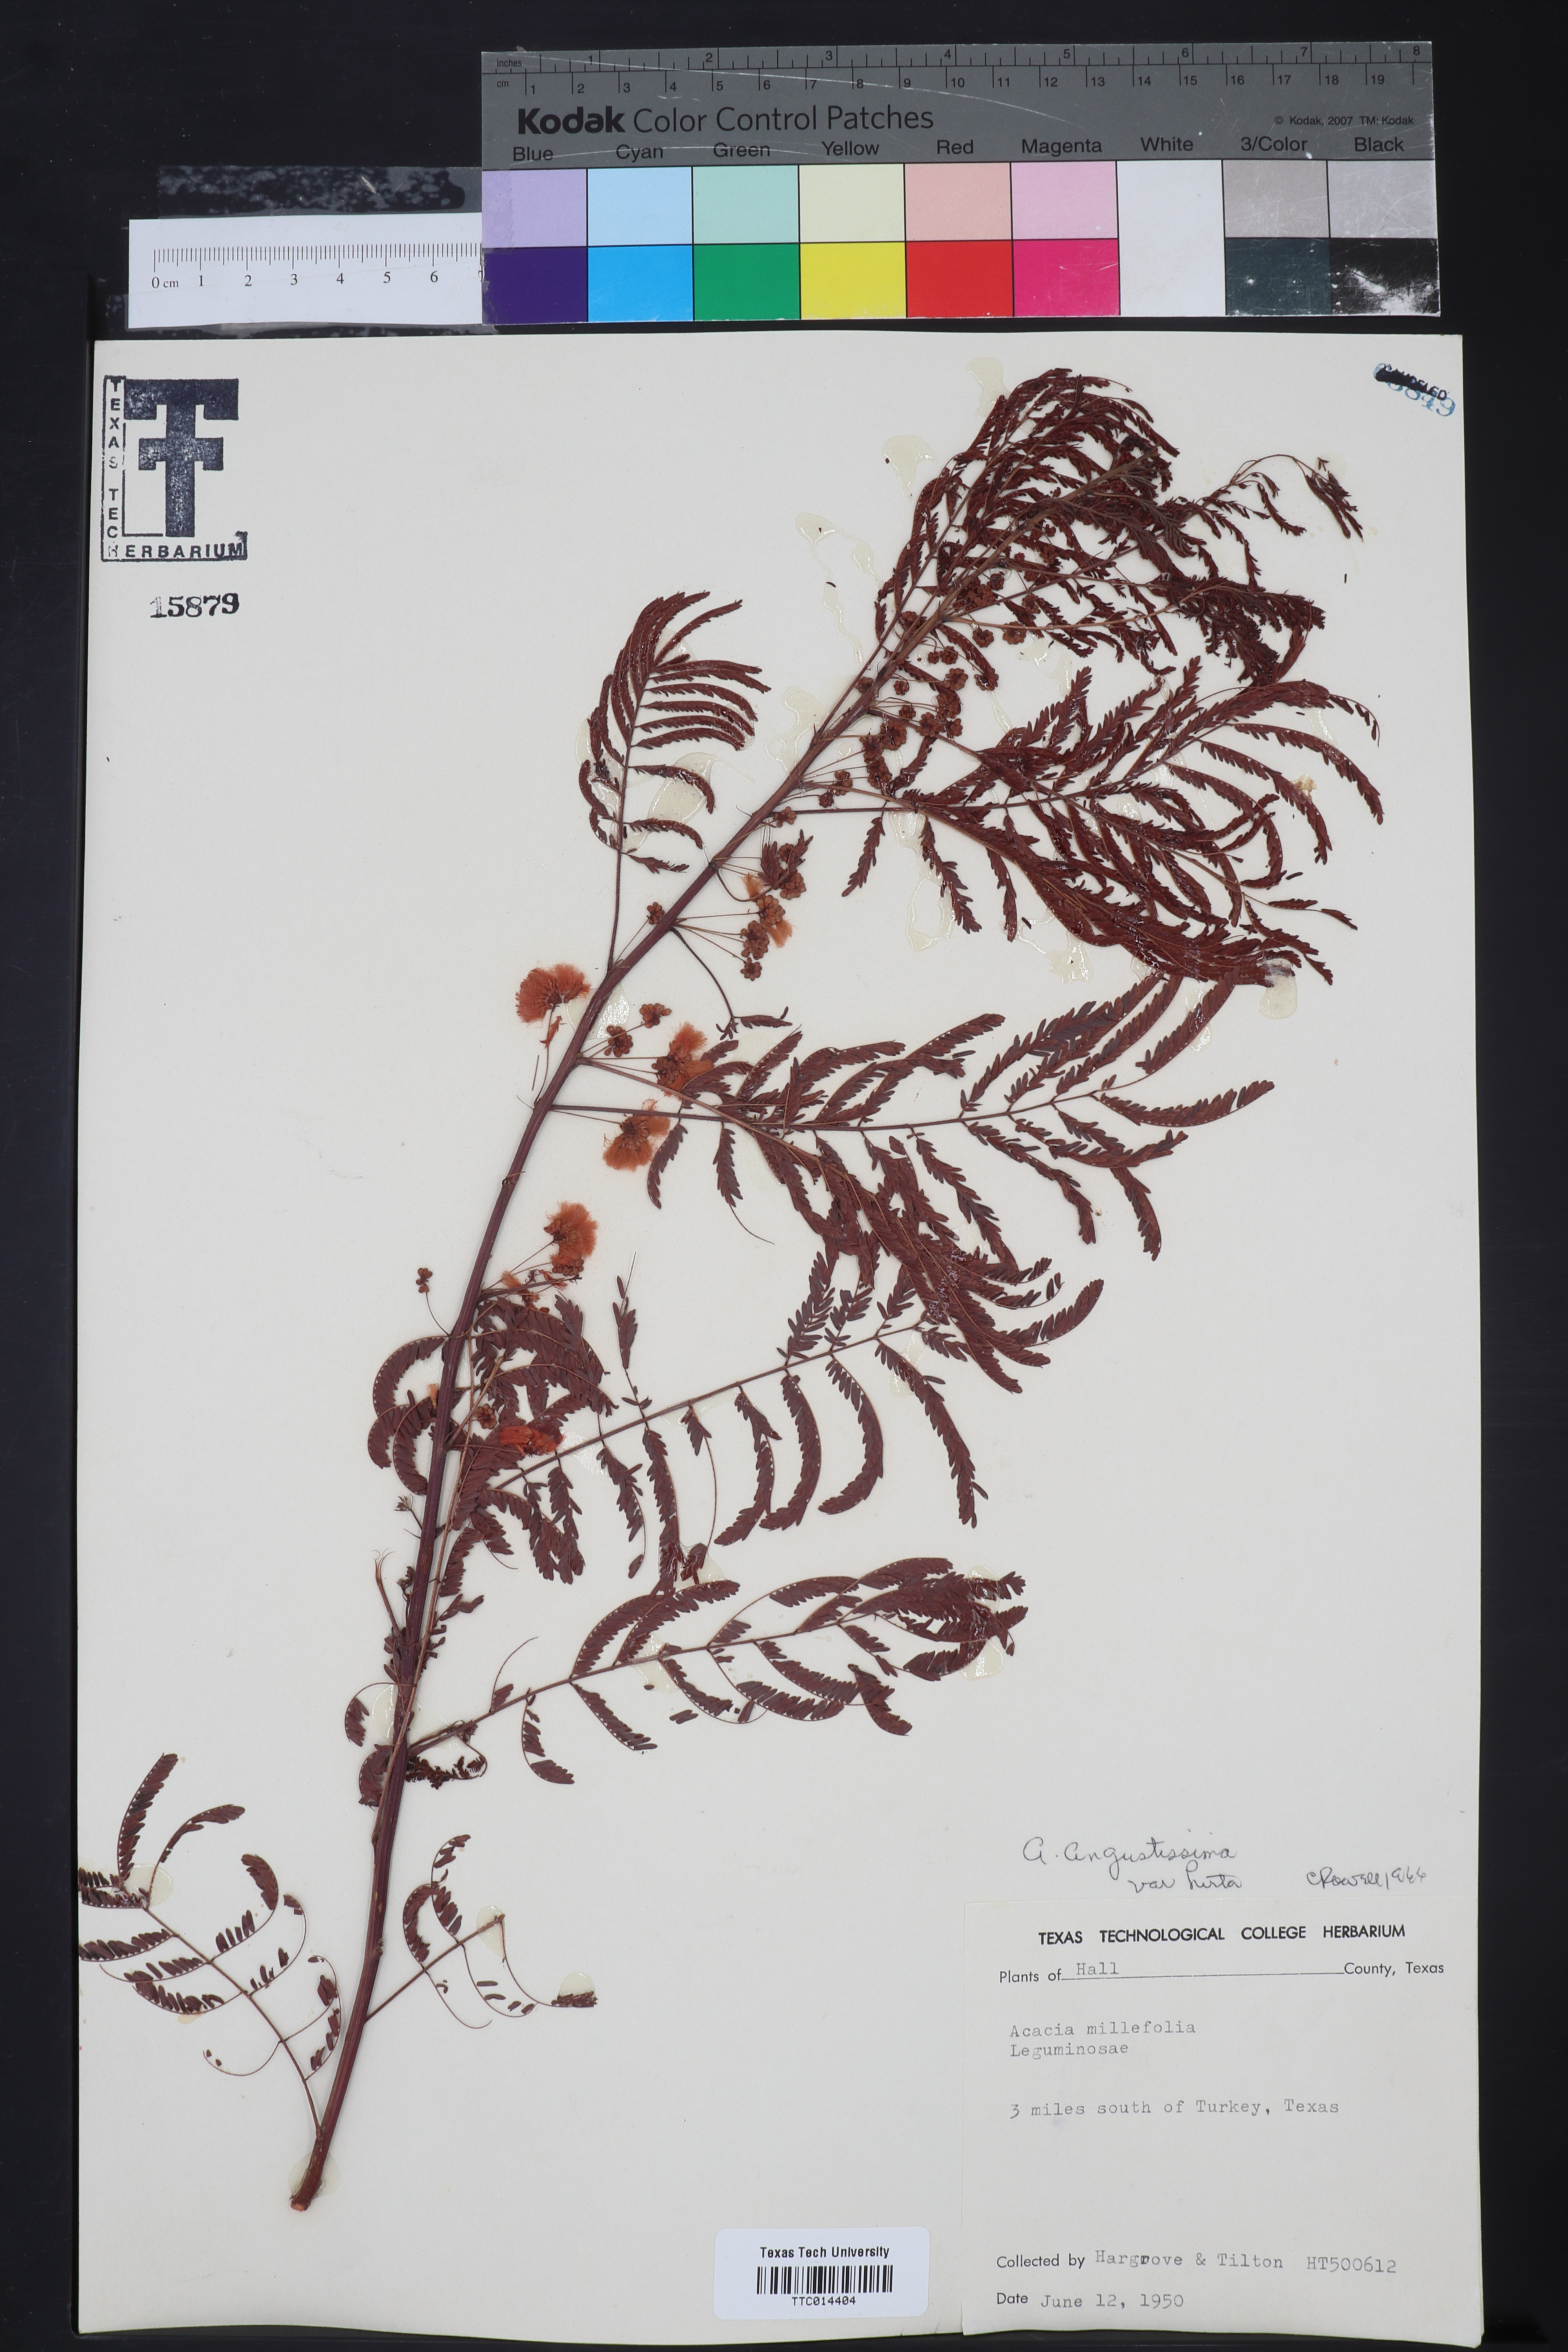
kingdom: Plantae
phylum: Tracheophyta
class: Magnoliopsida
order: Fabales
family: Fabaceae
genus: Acaciella
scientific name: Acaciella angustissima
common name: Prairie acacia
